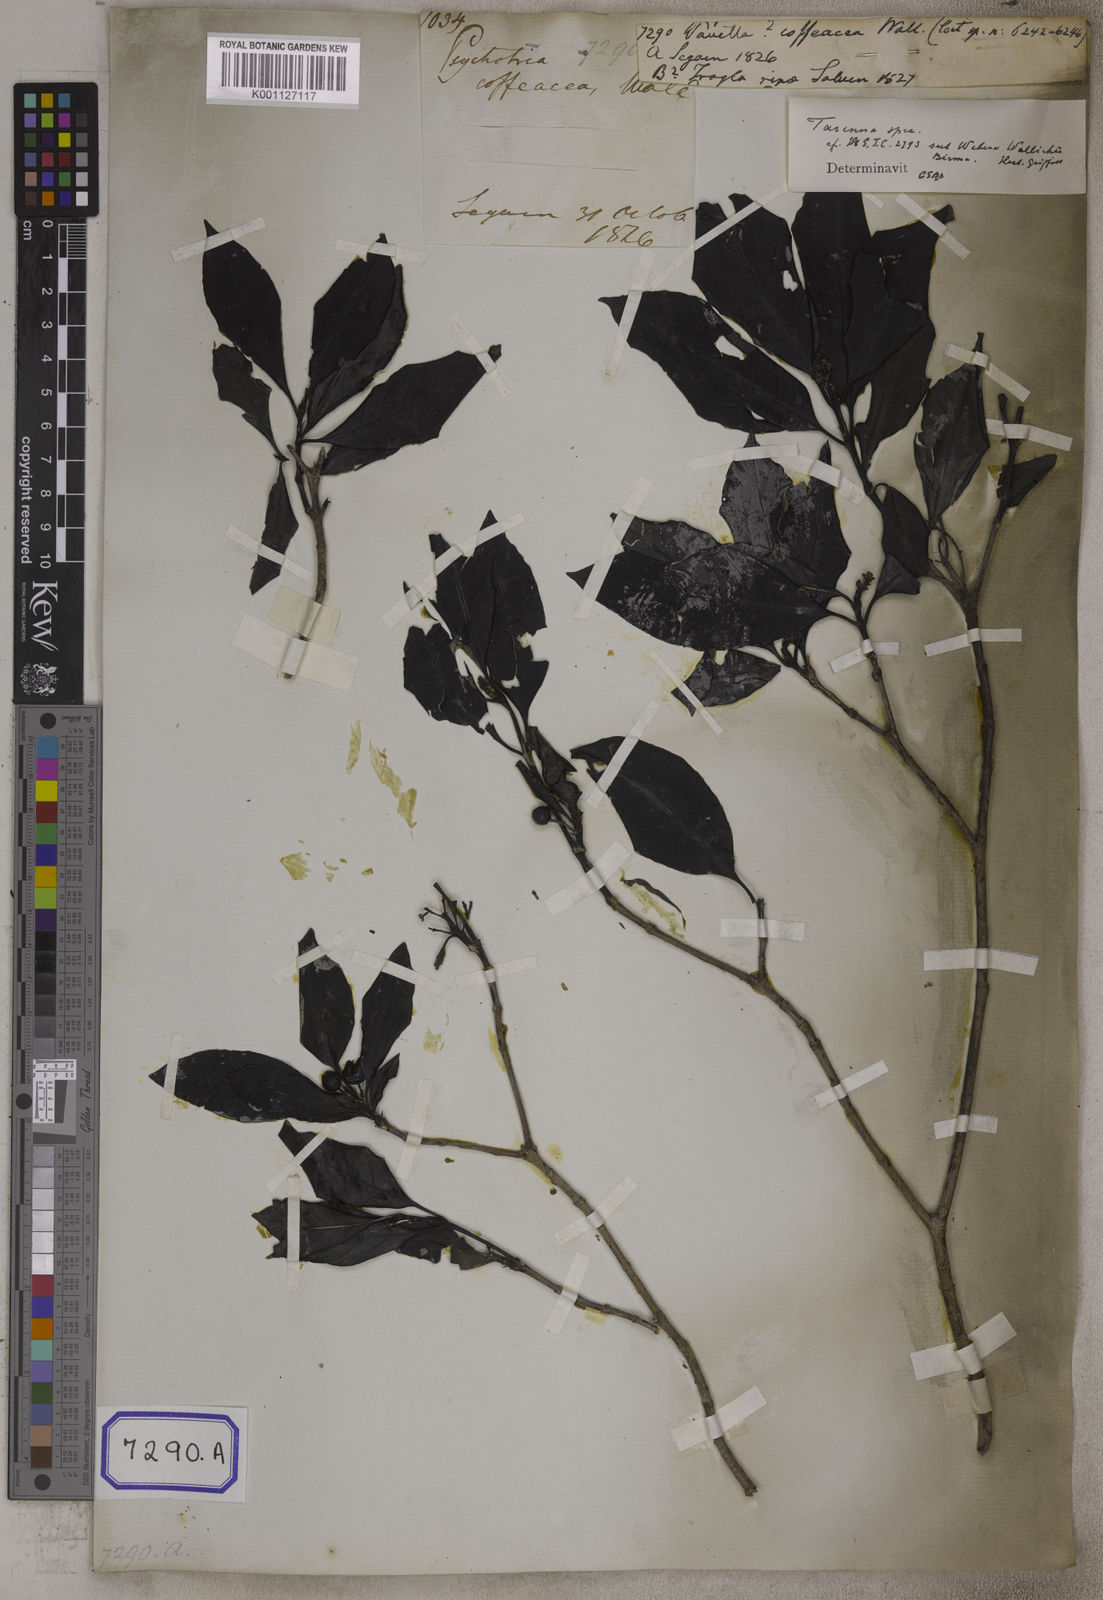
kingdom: Plantae
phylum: Tracheophyta
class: Magnoliopsida
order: Gentianales
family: Rubiaceae
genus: Tarenna
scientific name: Tarenna attenuata
